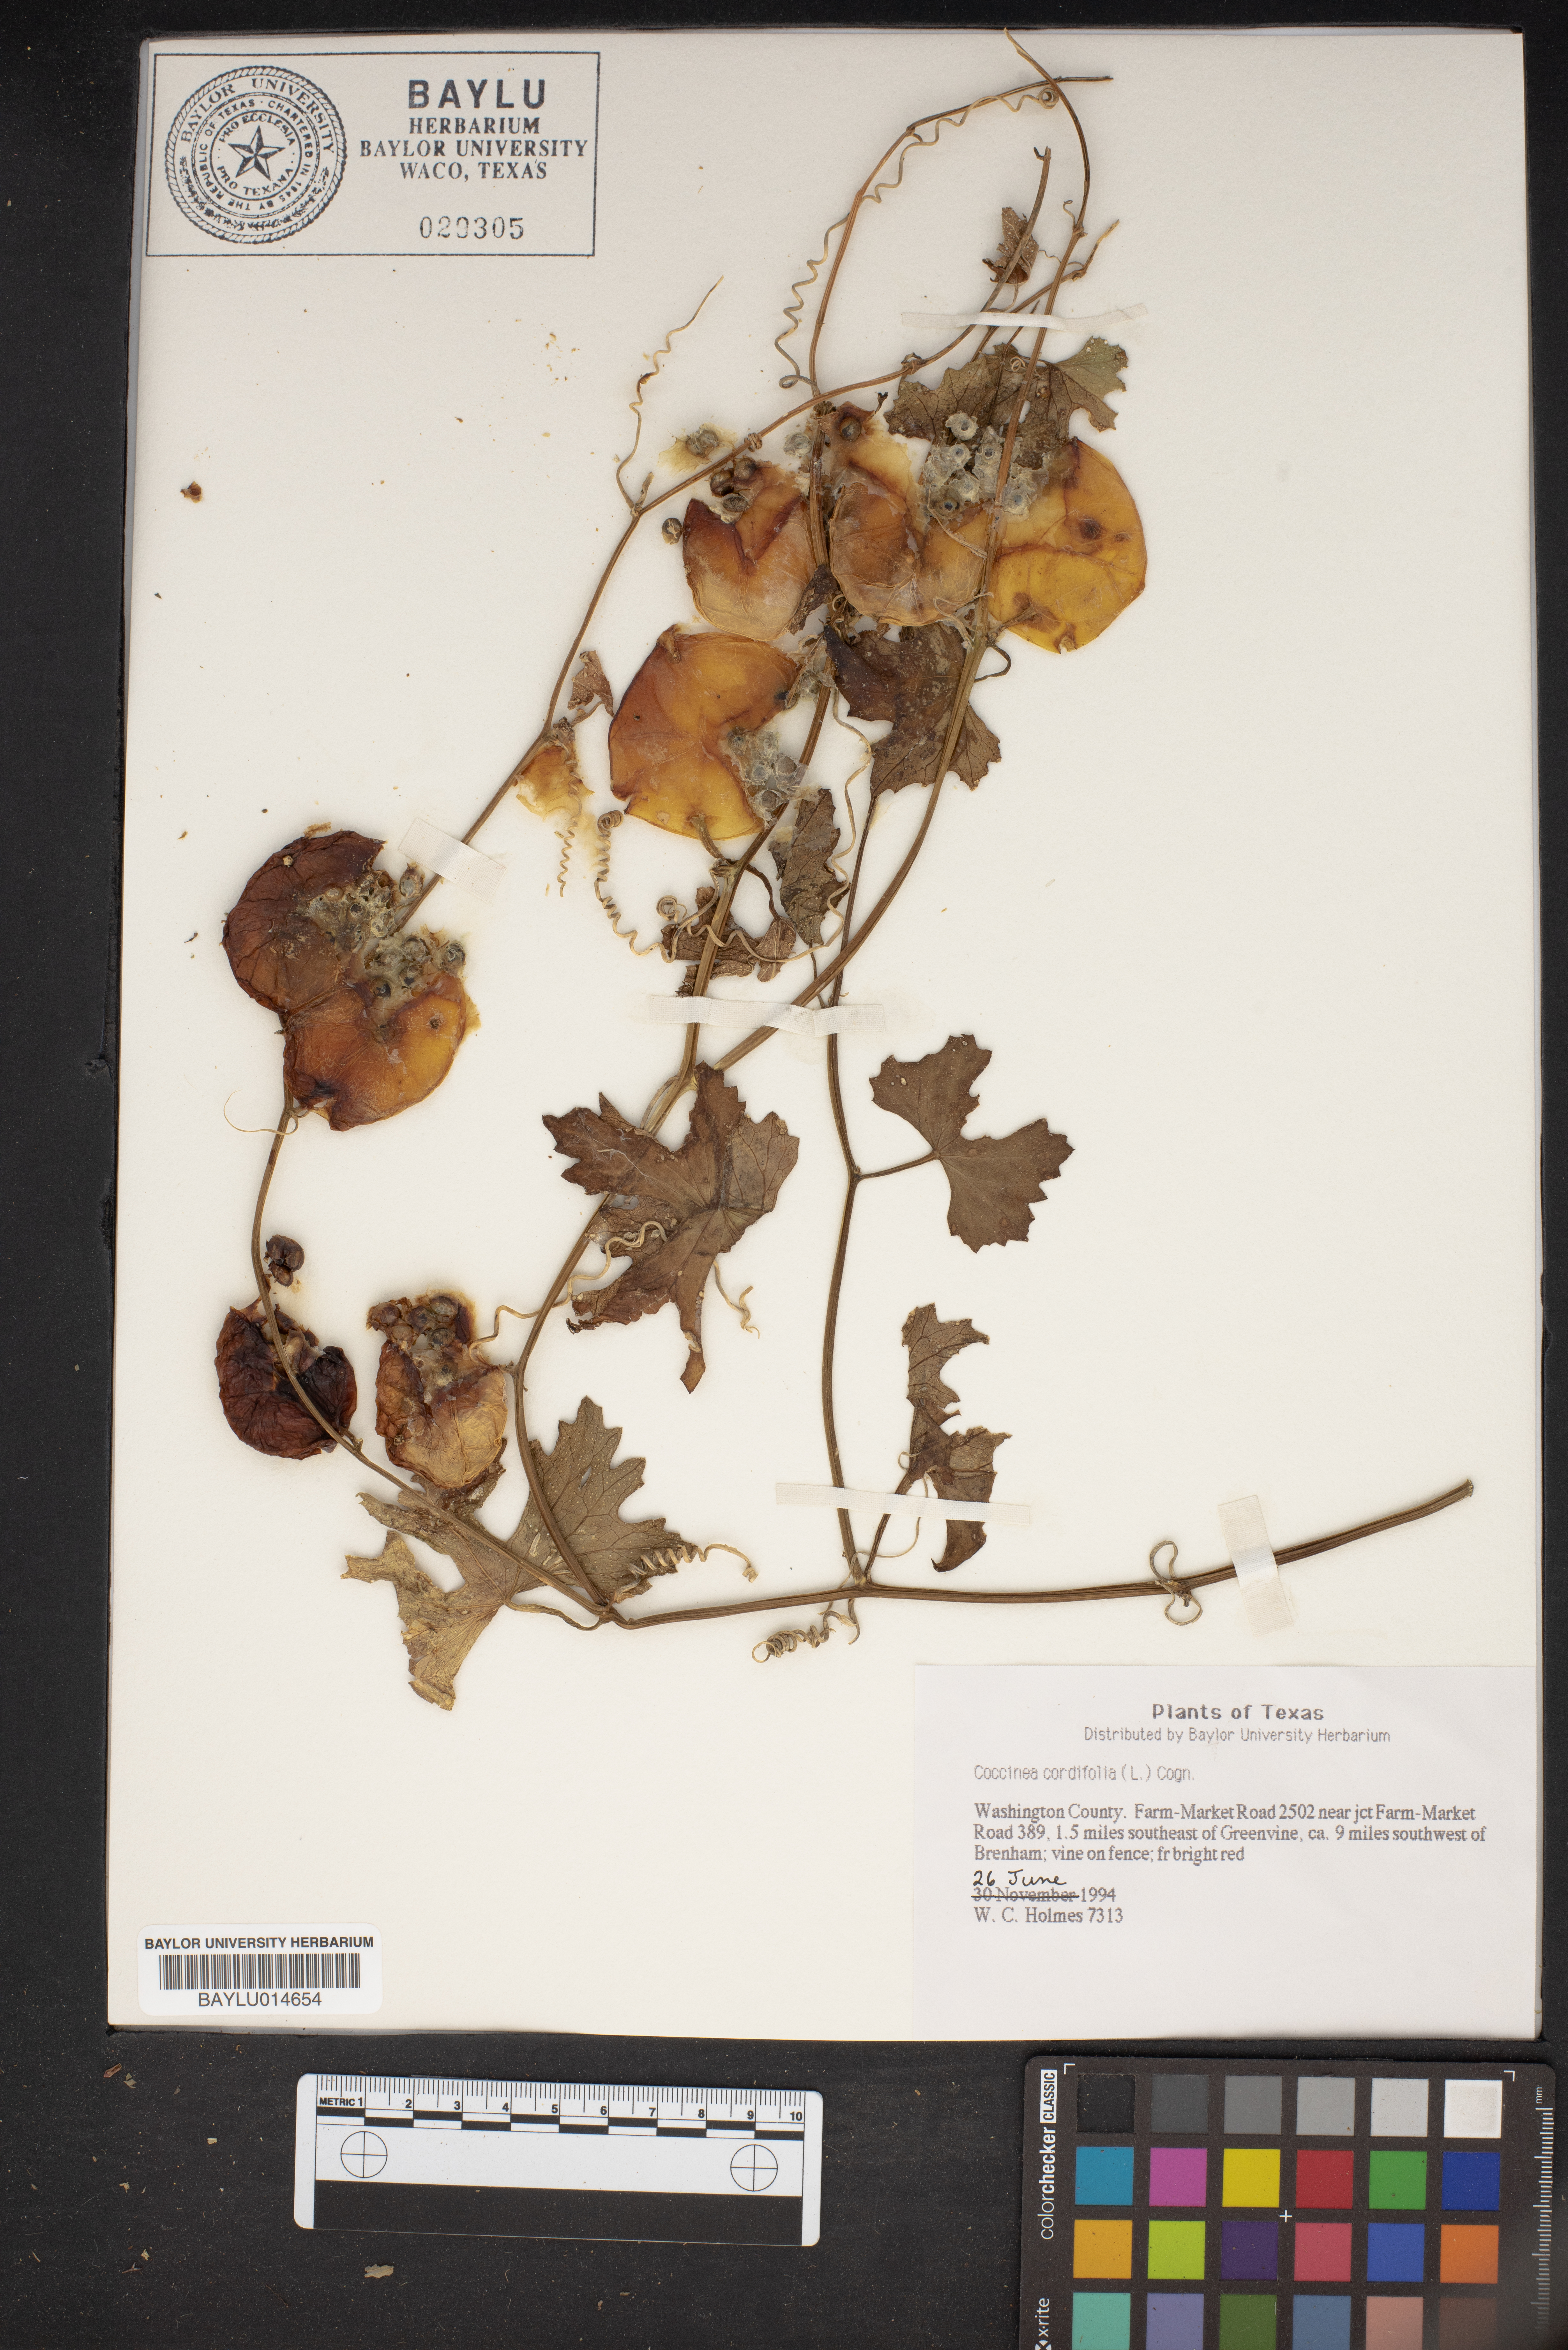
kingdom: Plantae
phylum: Tracheophyta
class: Magnoliopsida
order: Cucurbitales
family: Cucurbitaceae
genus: Cucumis
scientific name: Cucumis maderaspatanus
